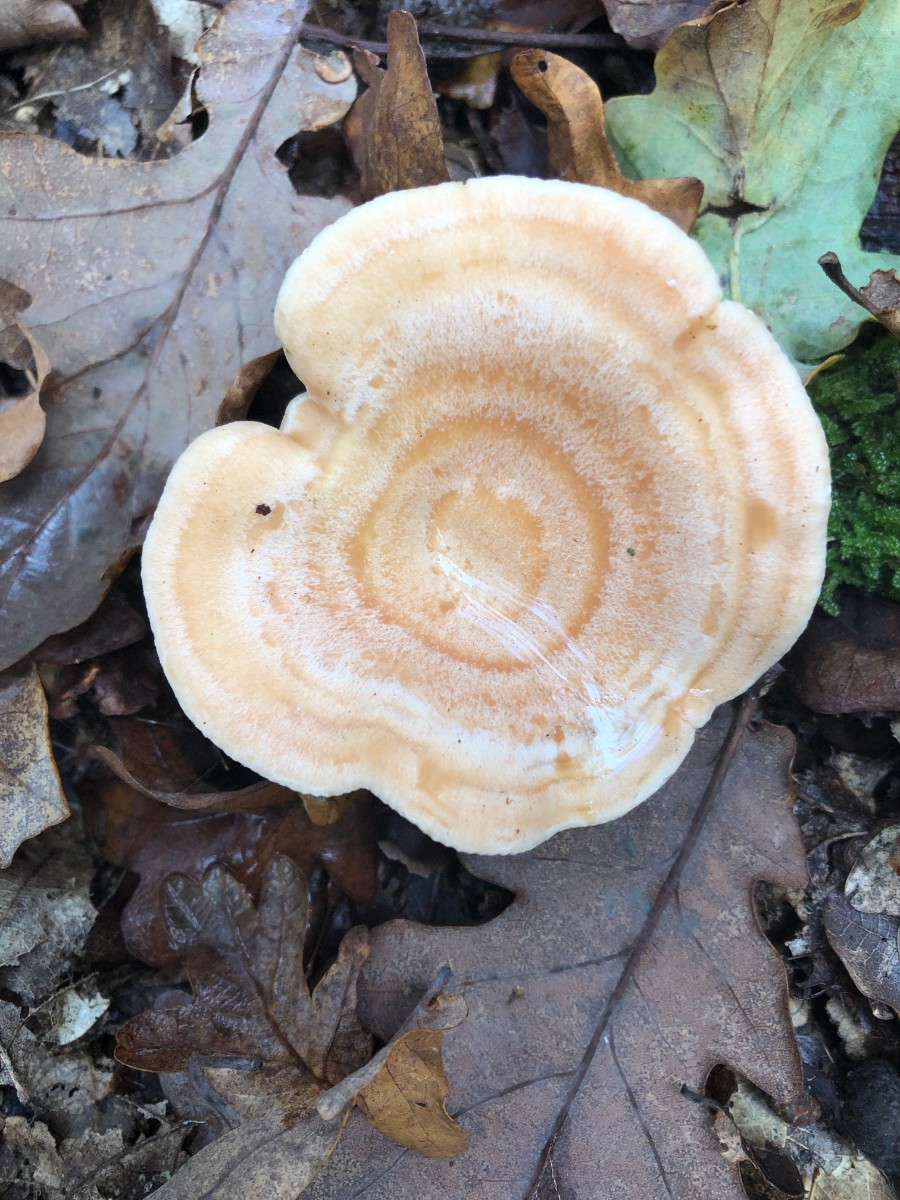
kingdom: Fungi
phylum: Basidiomycota
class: Agaricomycetes
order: Russulales
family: Russulaceae
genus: Lactarius
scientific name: Lactarius chrysorrheus
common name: svovlmælket mælkehat
